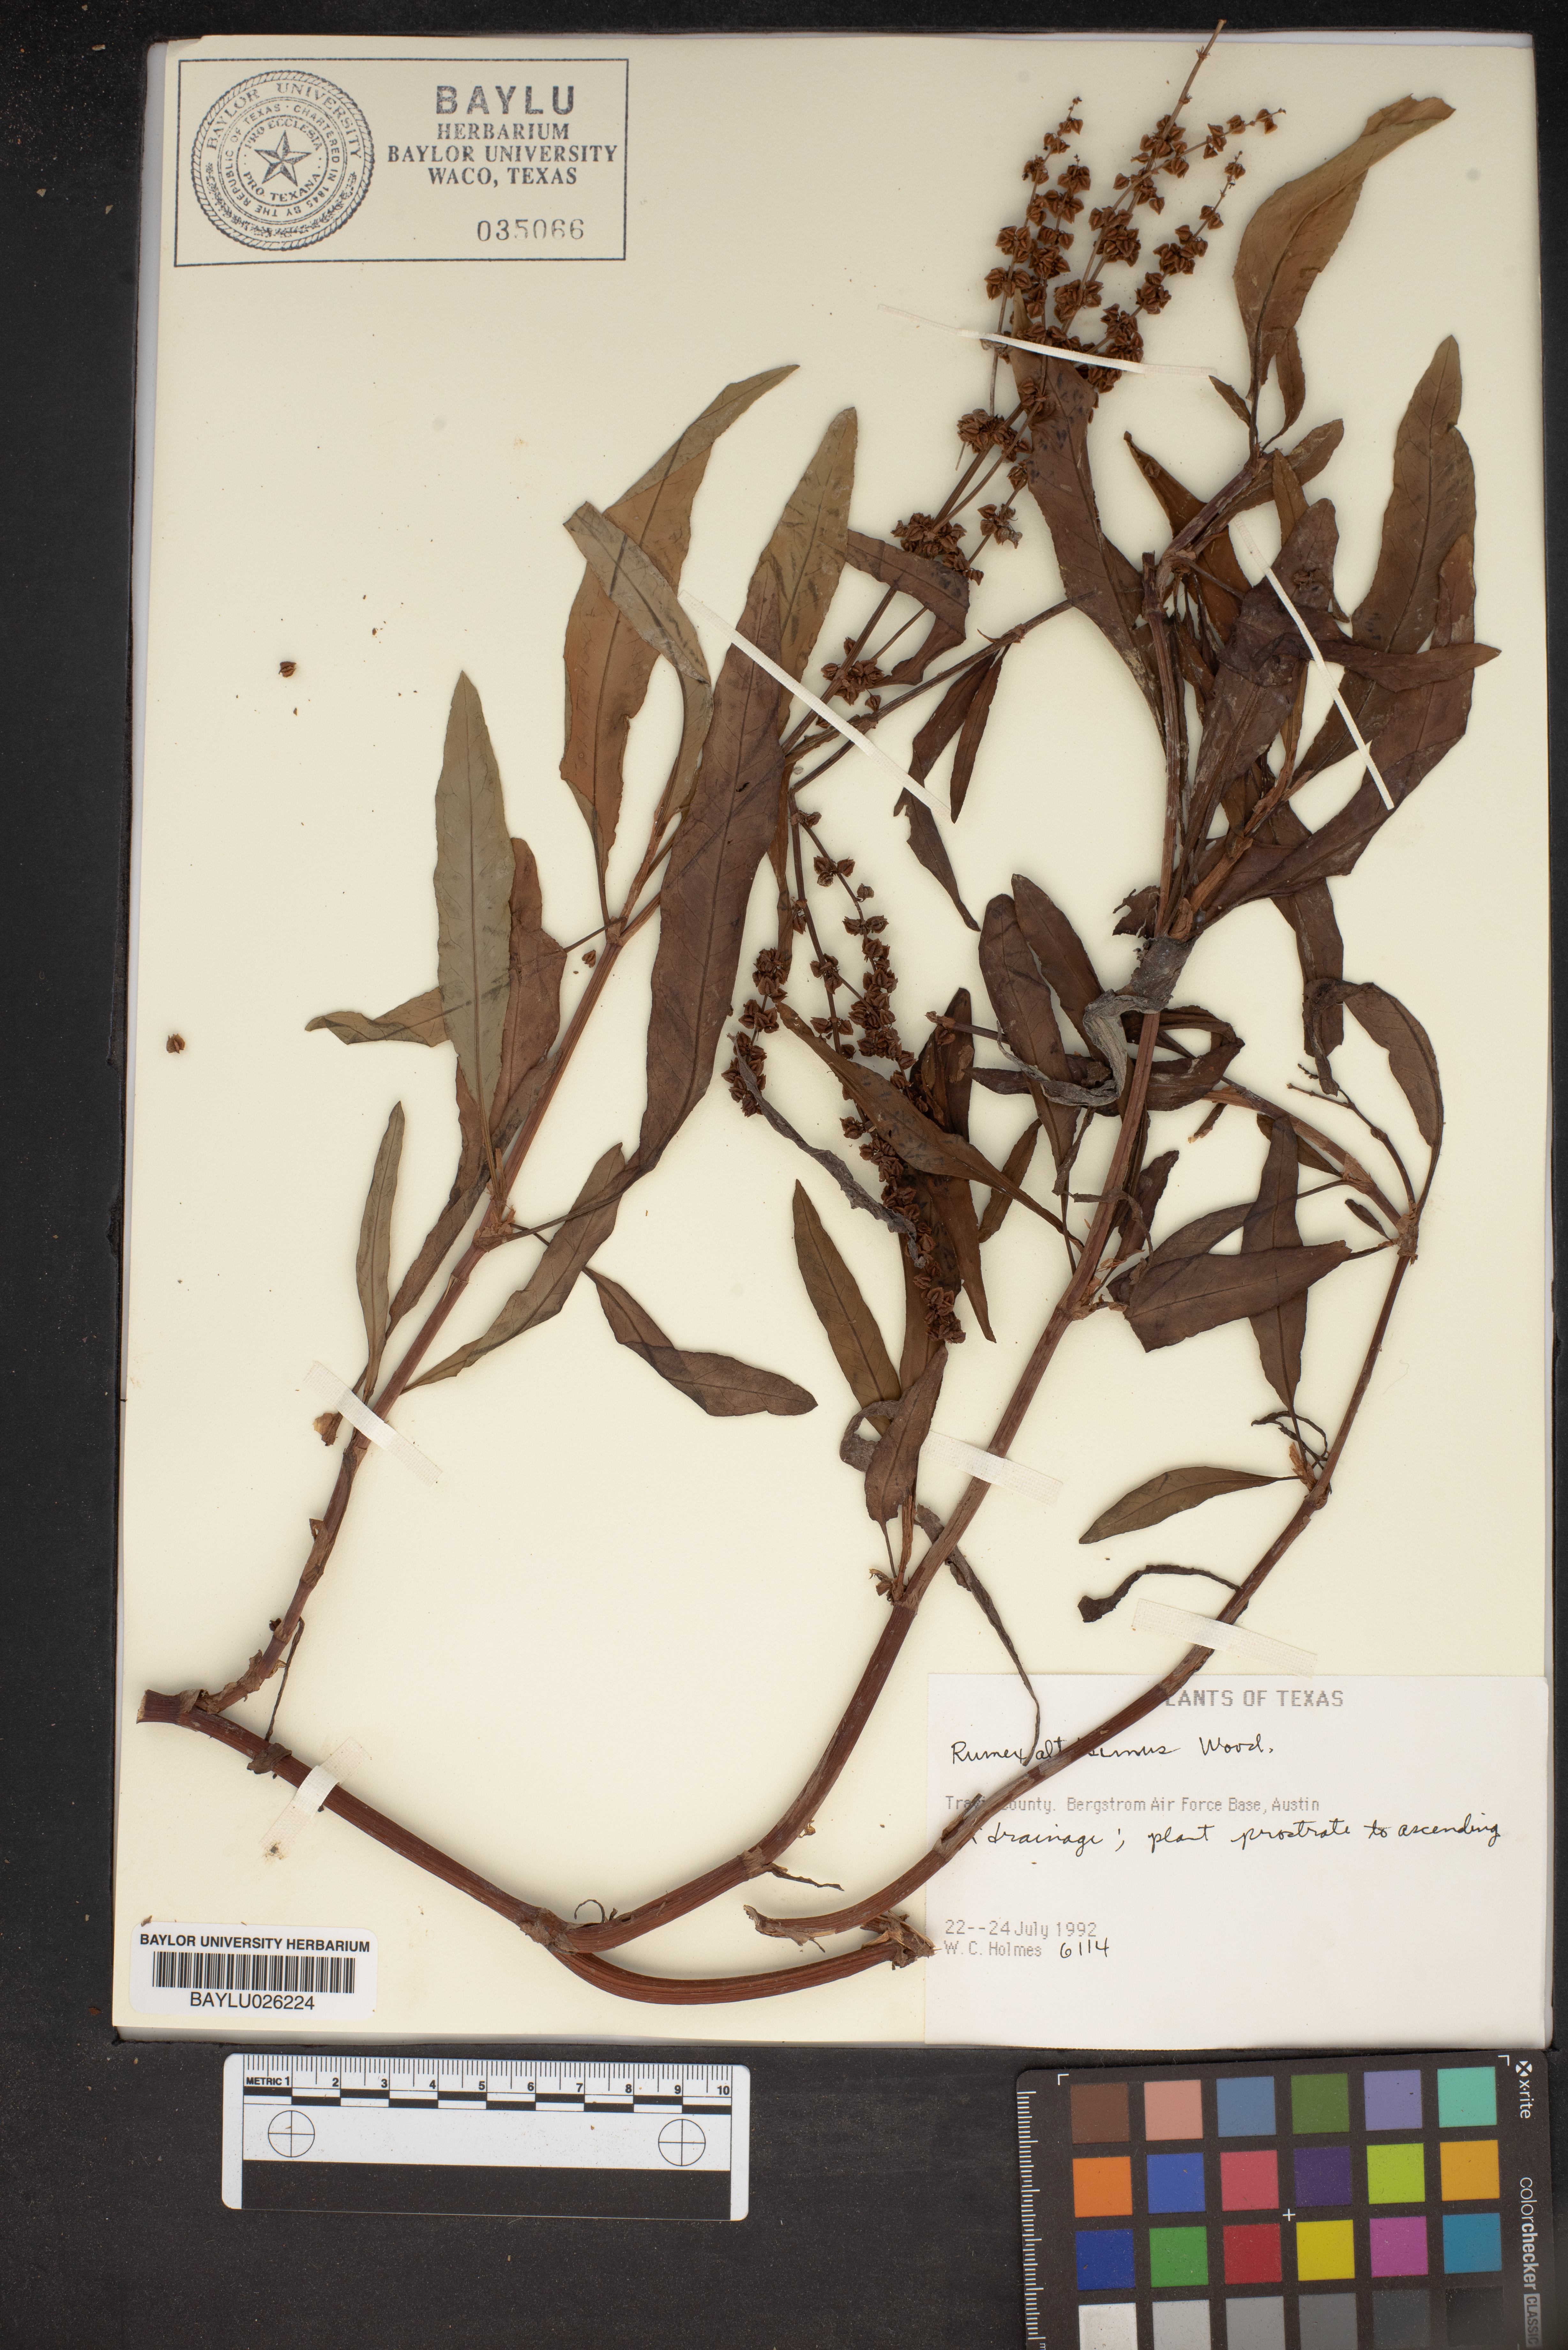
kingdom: Plantae
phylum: Tracheophyta
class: Magnoliopsida
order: Caryophyllales
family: Polygonaceae
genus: Rumex
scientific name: Rumex altissimus
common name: Smooth dock
